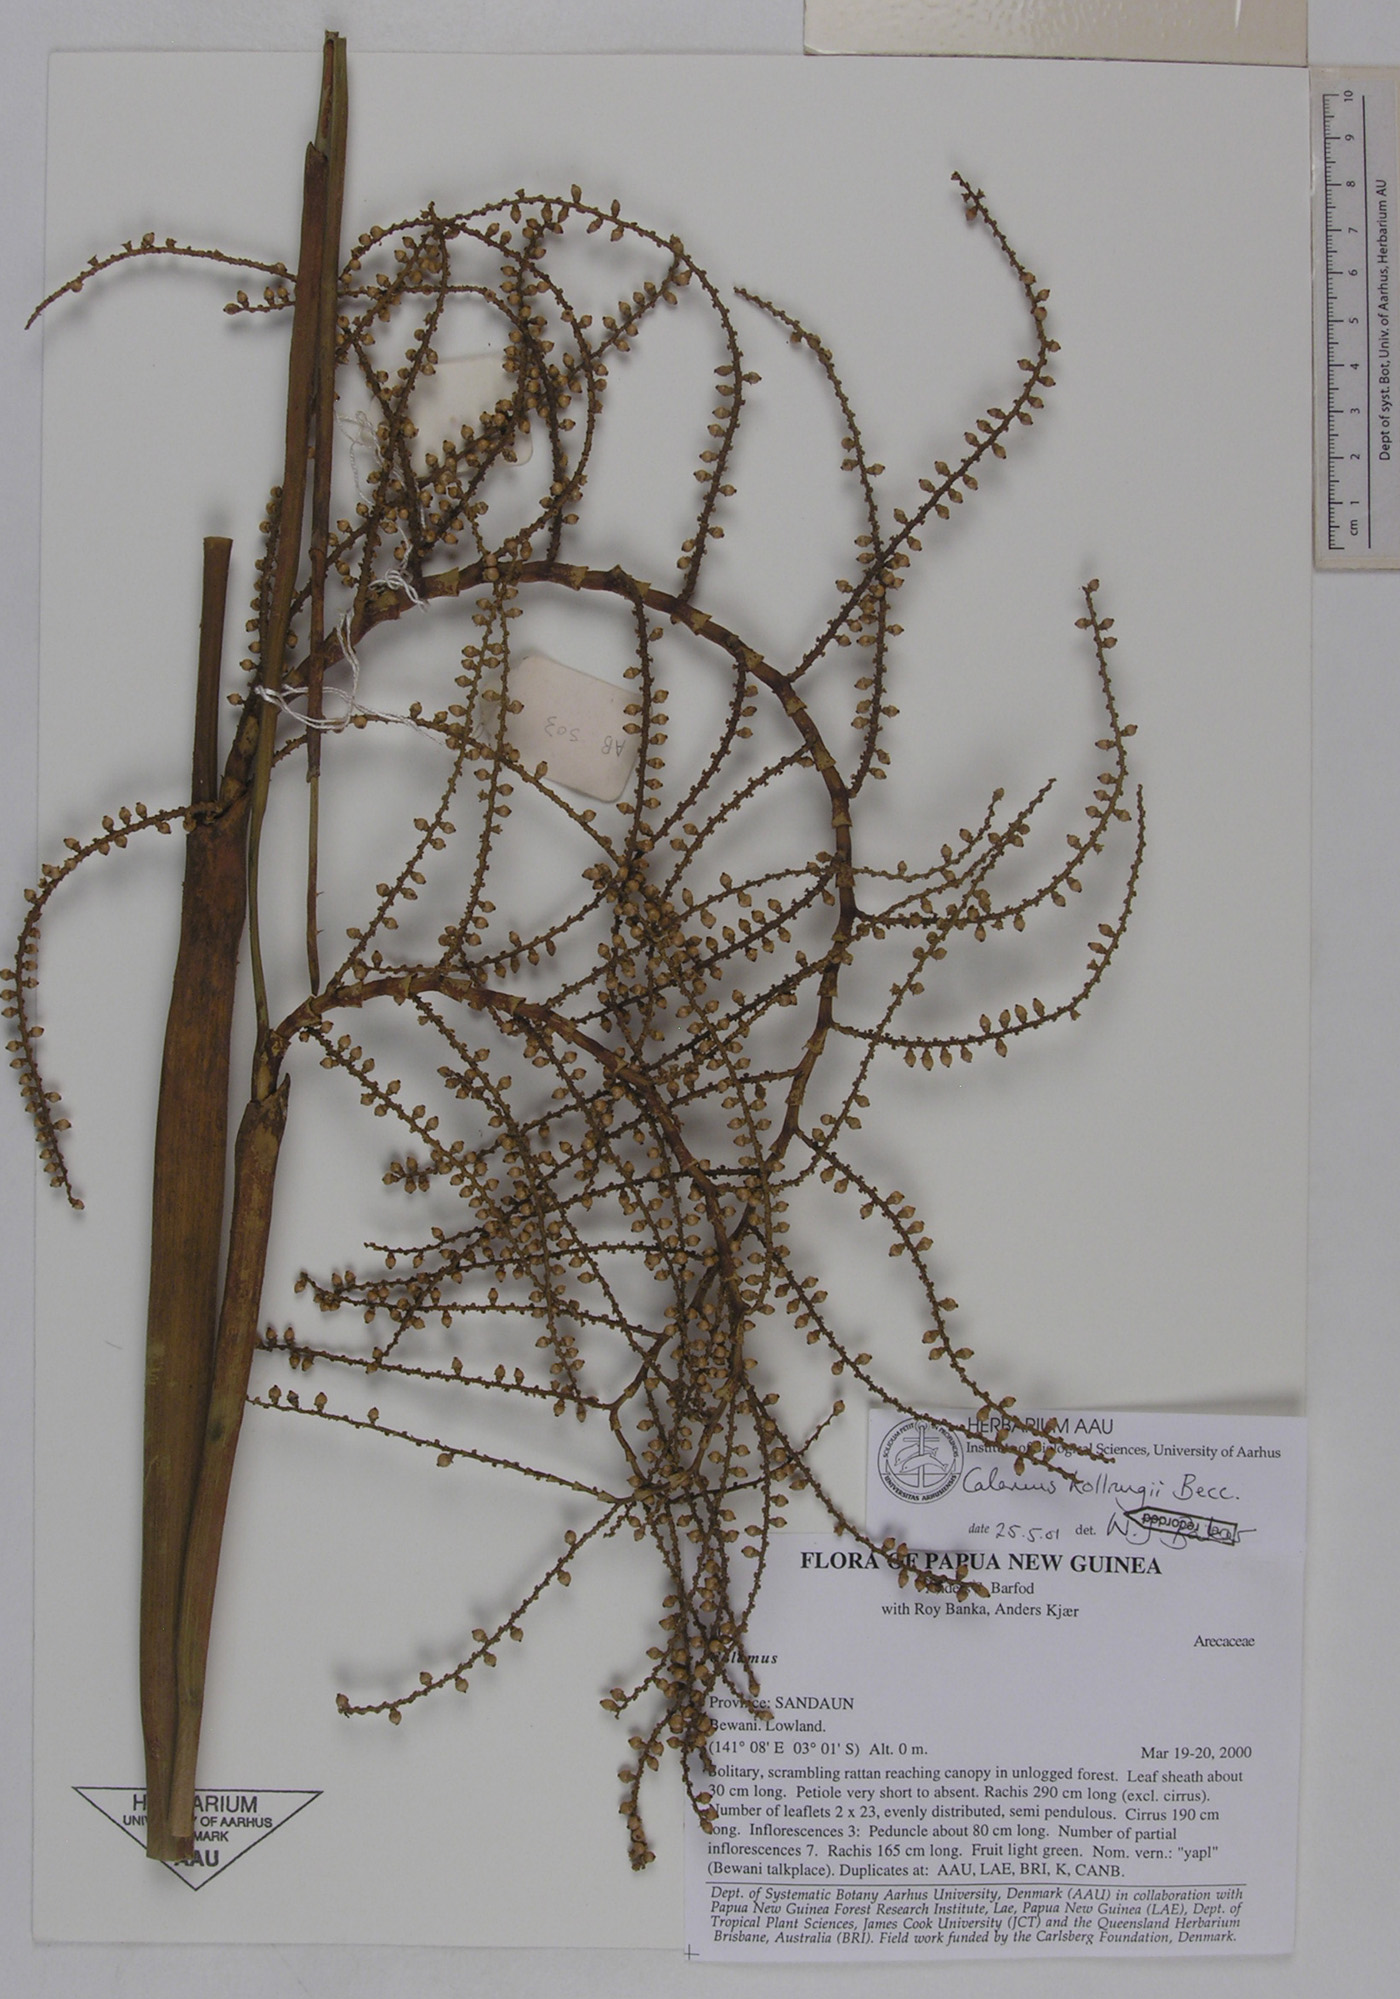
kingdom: Plantae
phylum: Tracheophyta
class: Liliopsida
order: Arecales
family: Arecaceae
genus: Calamus
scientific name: Calamus aruensis
